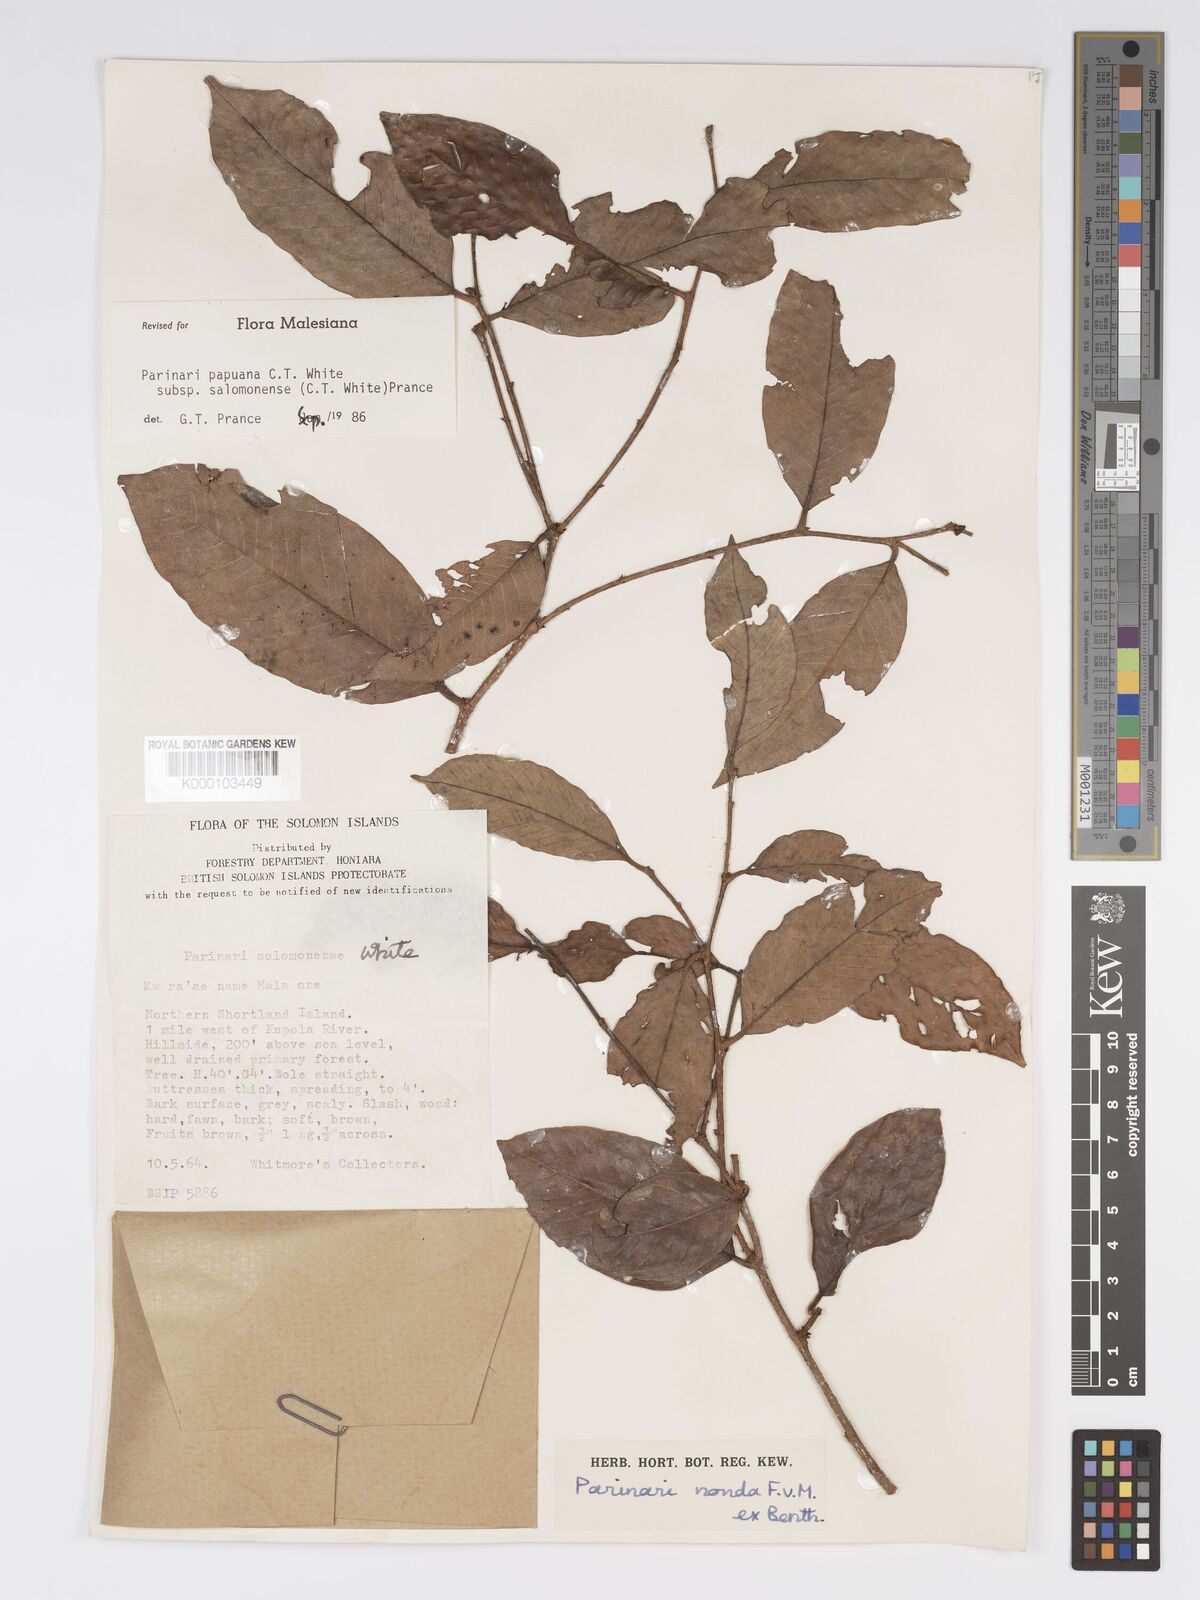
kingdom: Plantae
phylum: Tracheophyta
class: Magnoliopsida
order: Malpighiales
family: Chrysobalanaceae
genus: Parinari
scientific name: Parinari papuana
